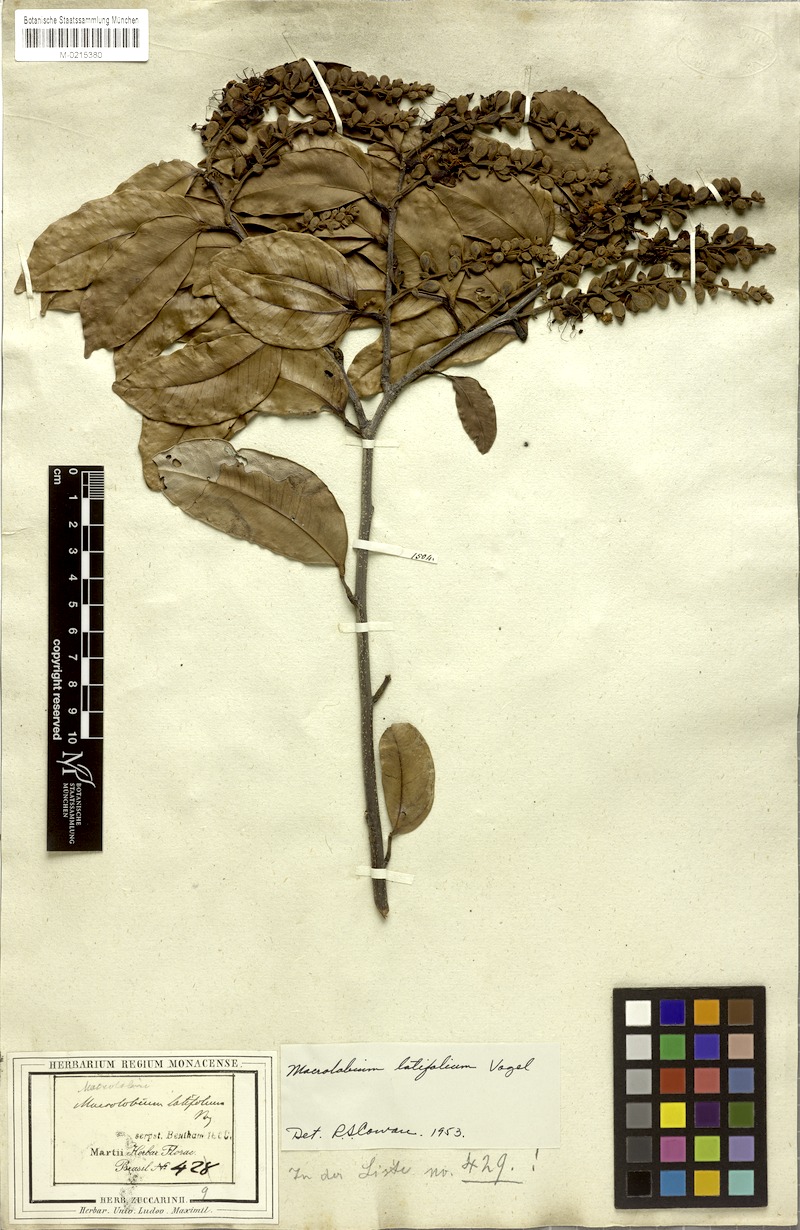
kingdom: Plantae
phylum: Tracheophyta
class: Magnoliopsida
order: Fabales
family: Fabaceae
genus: Macrolobium
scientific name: Macrolobium latifolium
